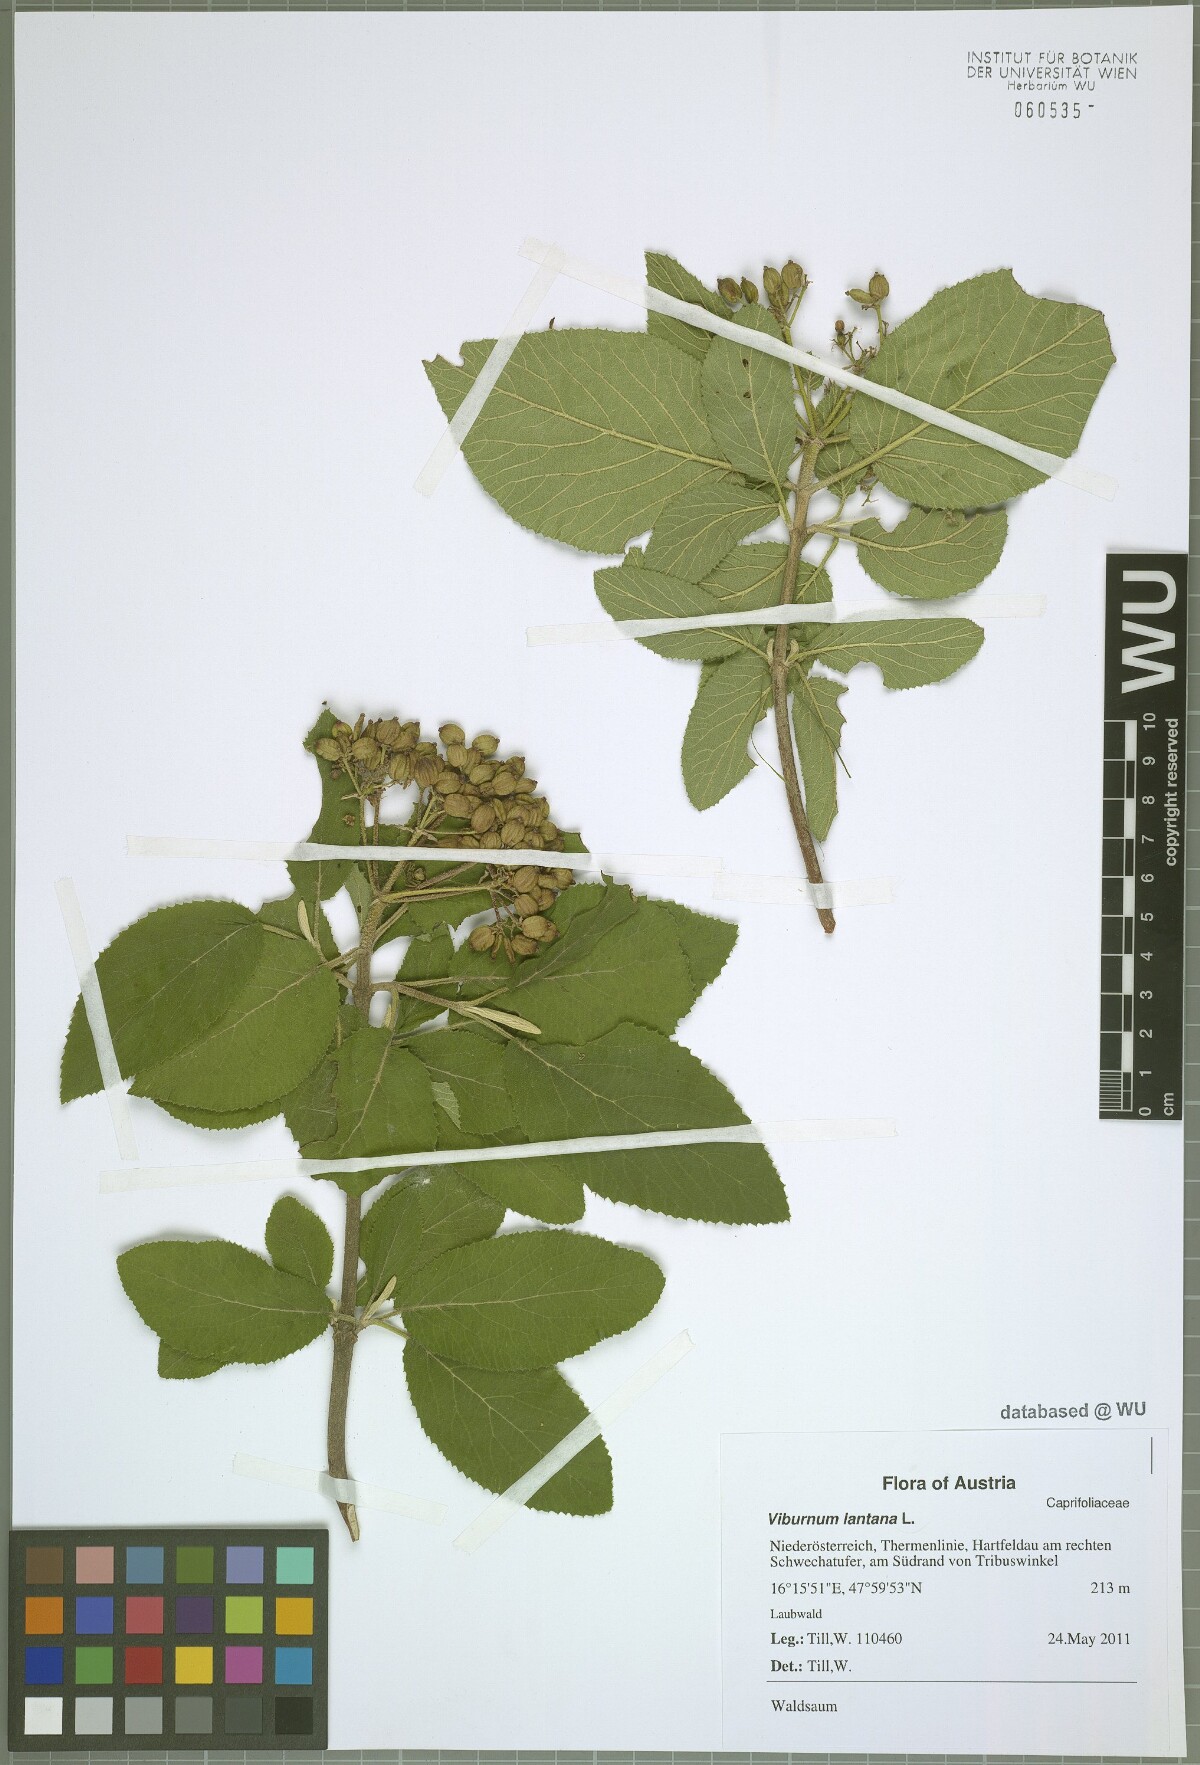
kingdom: Plantae
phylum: Tracheophyta
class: Magnoliopsida
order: Dipsacales
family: Viburnaceae
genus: Viburnum
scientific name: Viburnum lantana
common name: Wayfaring tree
